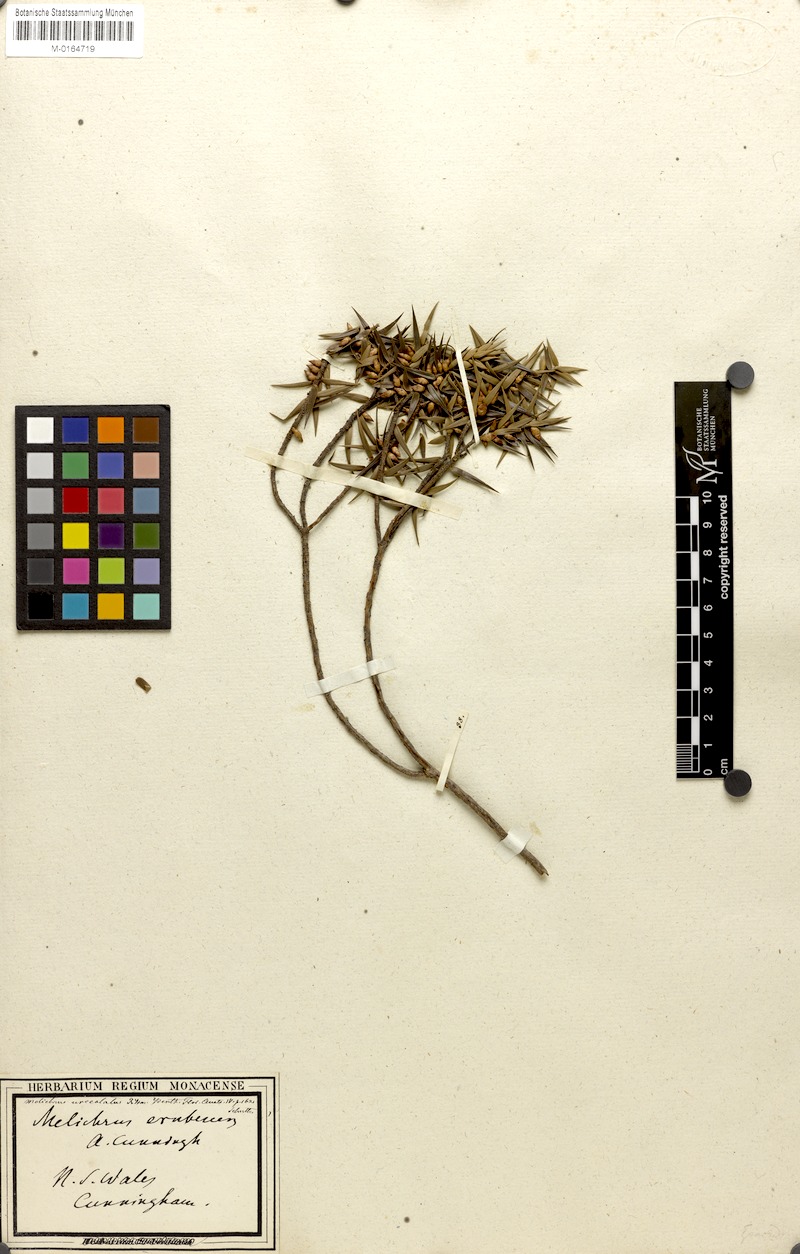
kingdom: Plantae
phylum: Tracheophyta
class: Magnoliopsida
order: Ericales
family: Ericaceae
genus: Melichrus
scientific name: Melichrus urceolatus
